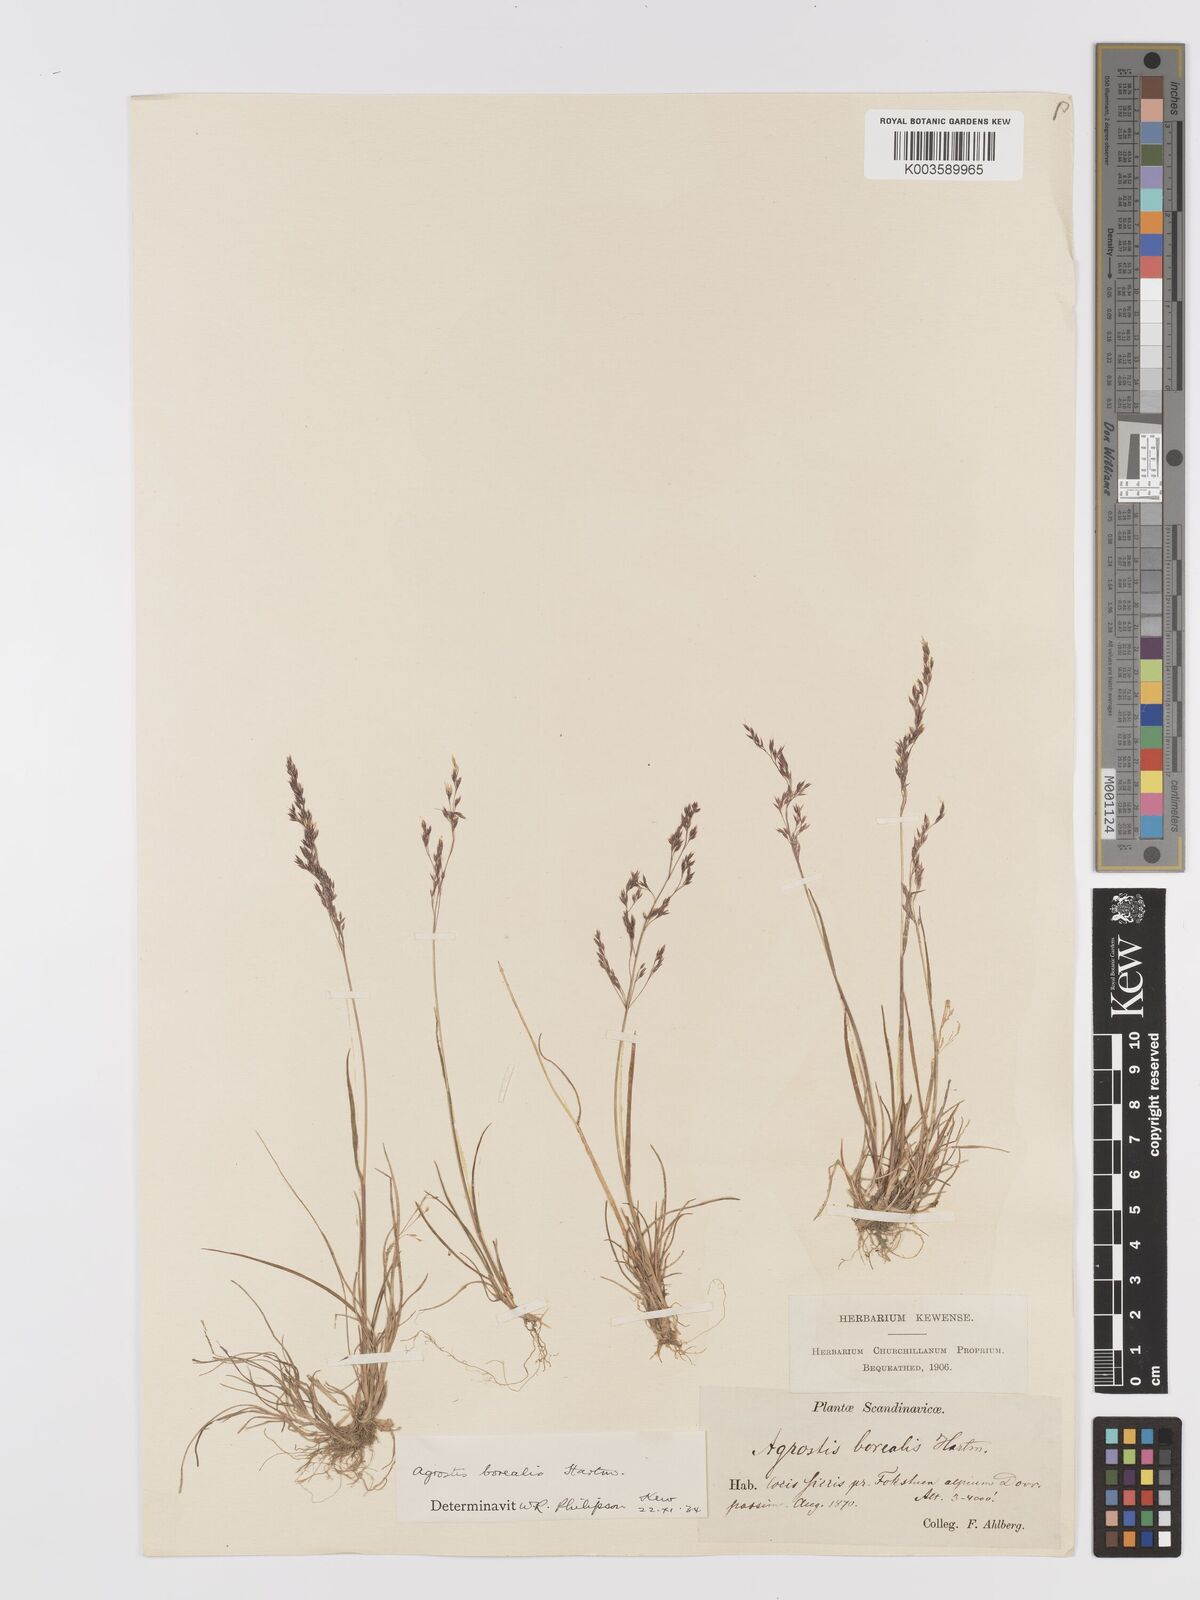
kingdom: Plantae
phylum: Tracheophyta
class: Liliopsida
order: Poales
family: Poaceae
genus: Agrostis
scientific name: Agrostis mertensii
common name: Northern bent
